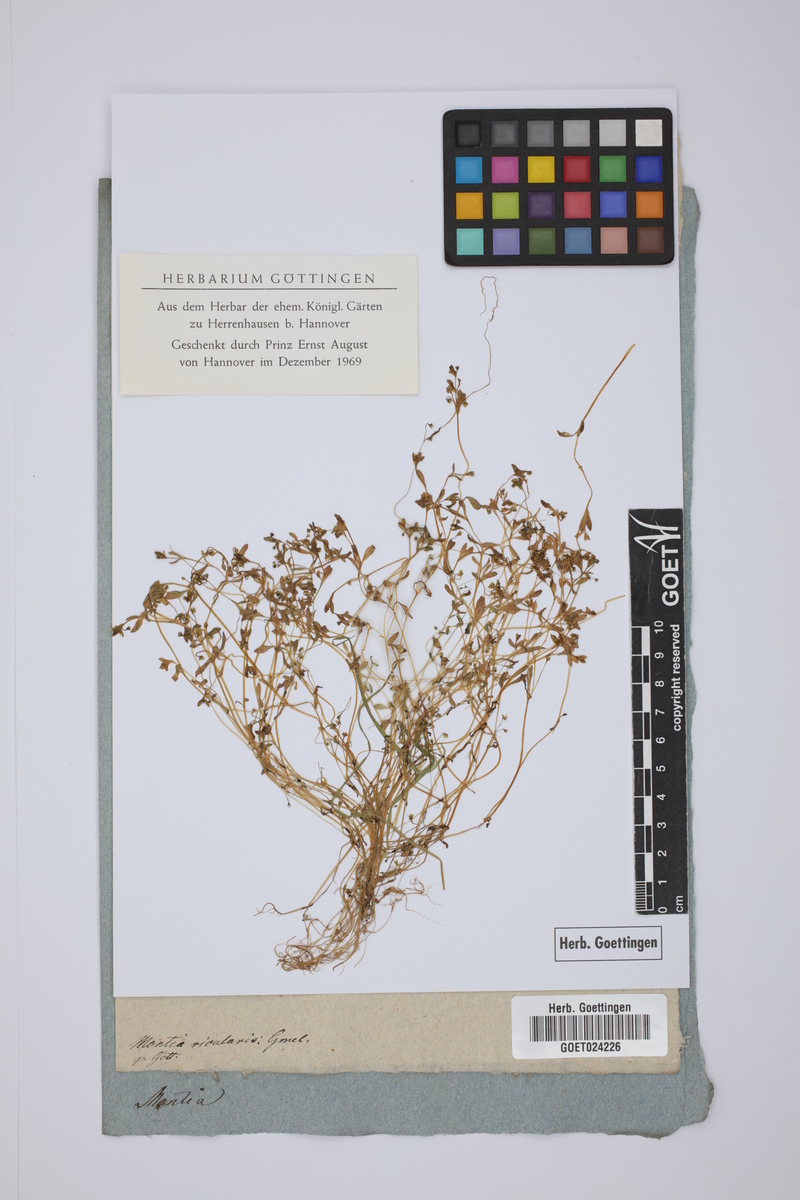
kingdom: Plantae
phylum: Tracheophyta
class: Magnoliopsida
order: Caryophyllales
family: Montiaceae
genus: Montia
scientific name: Montia fontana
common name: Blinks
